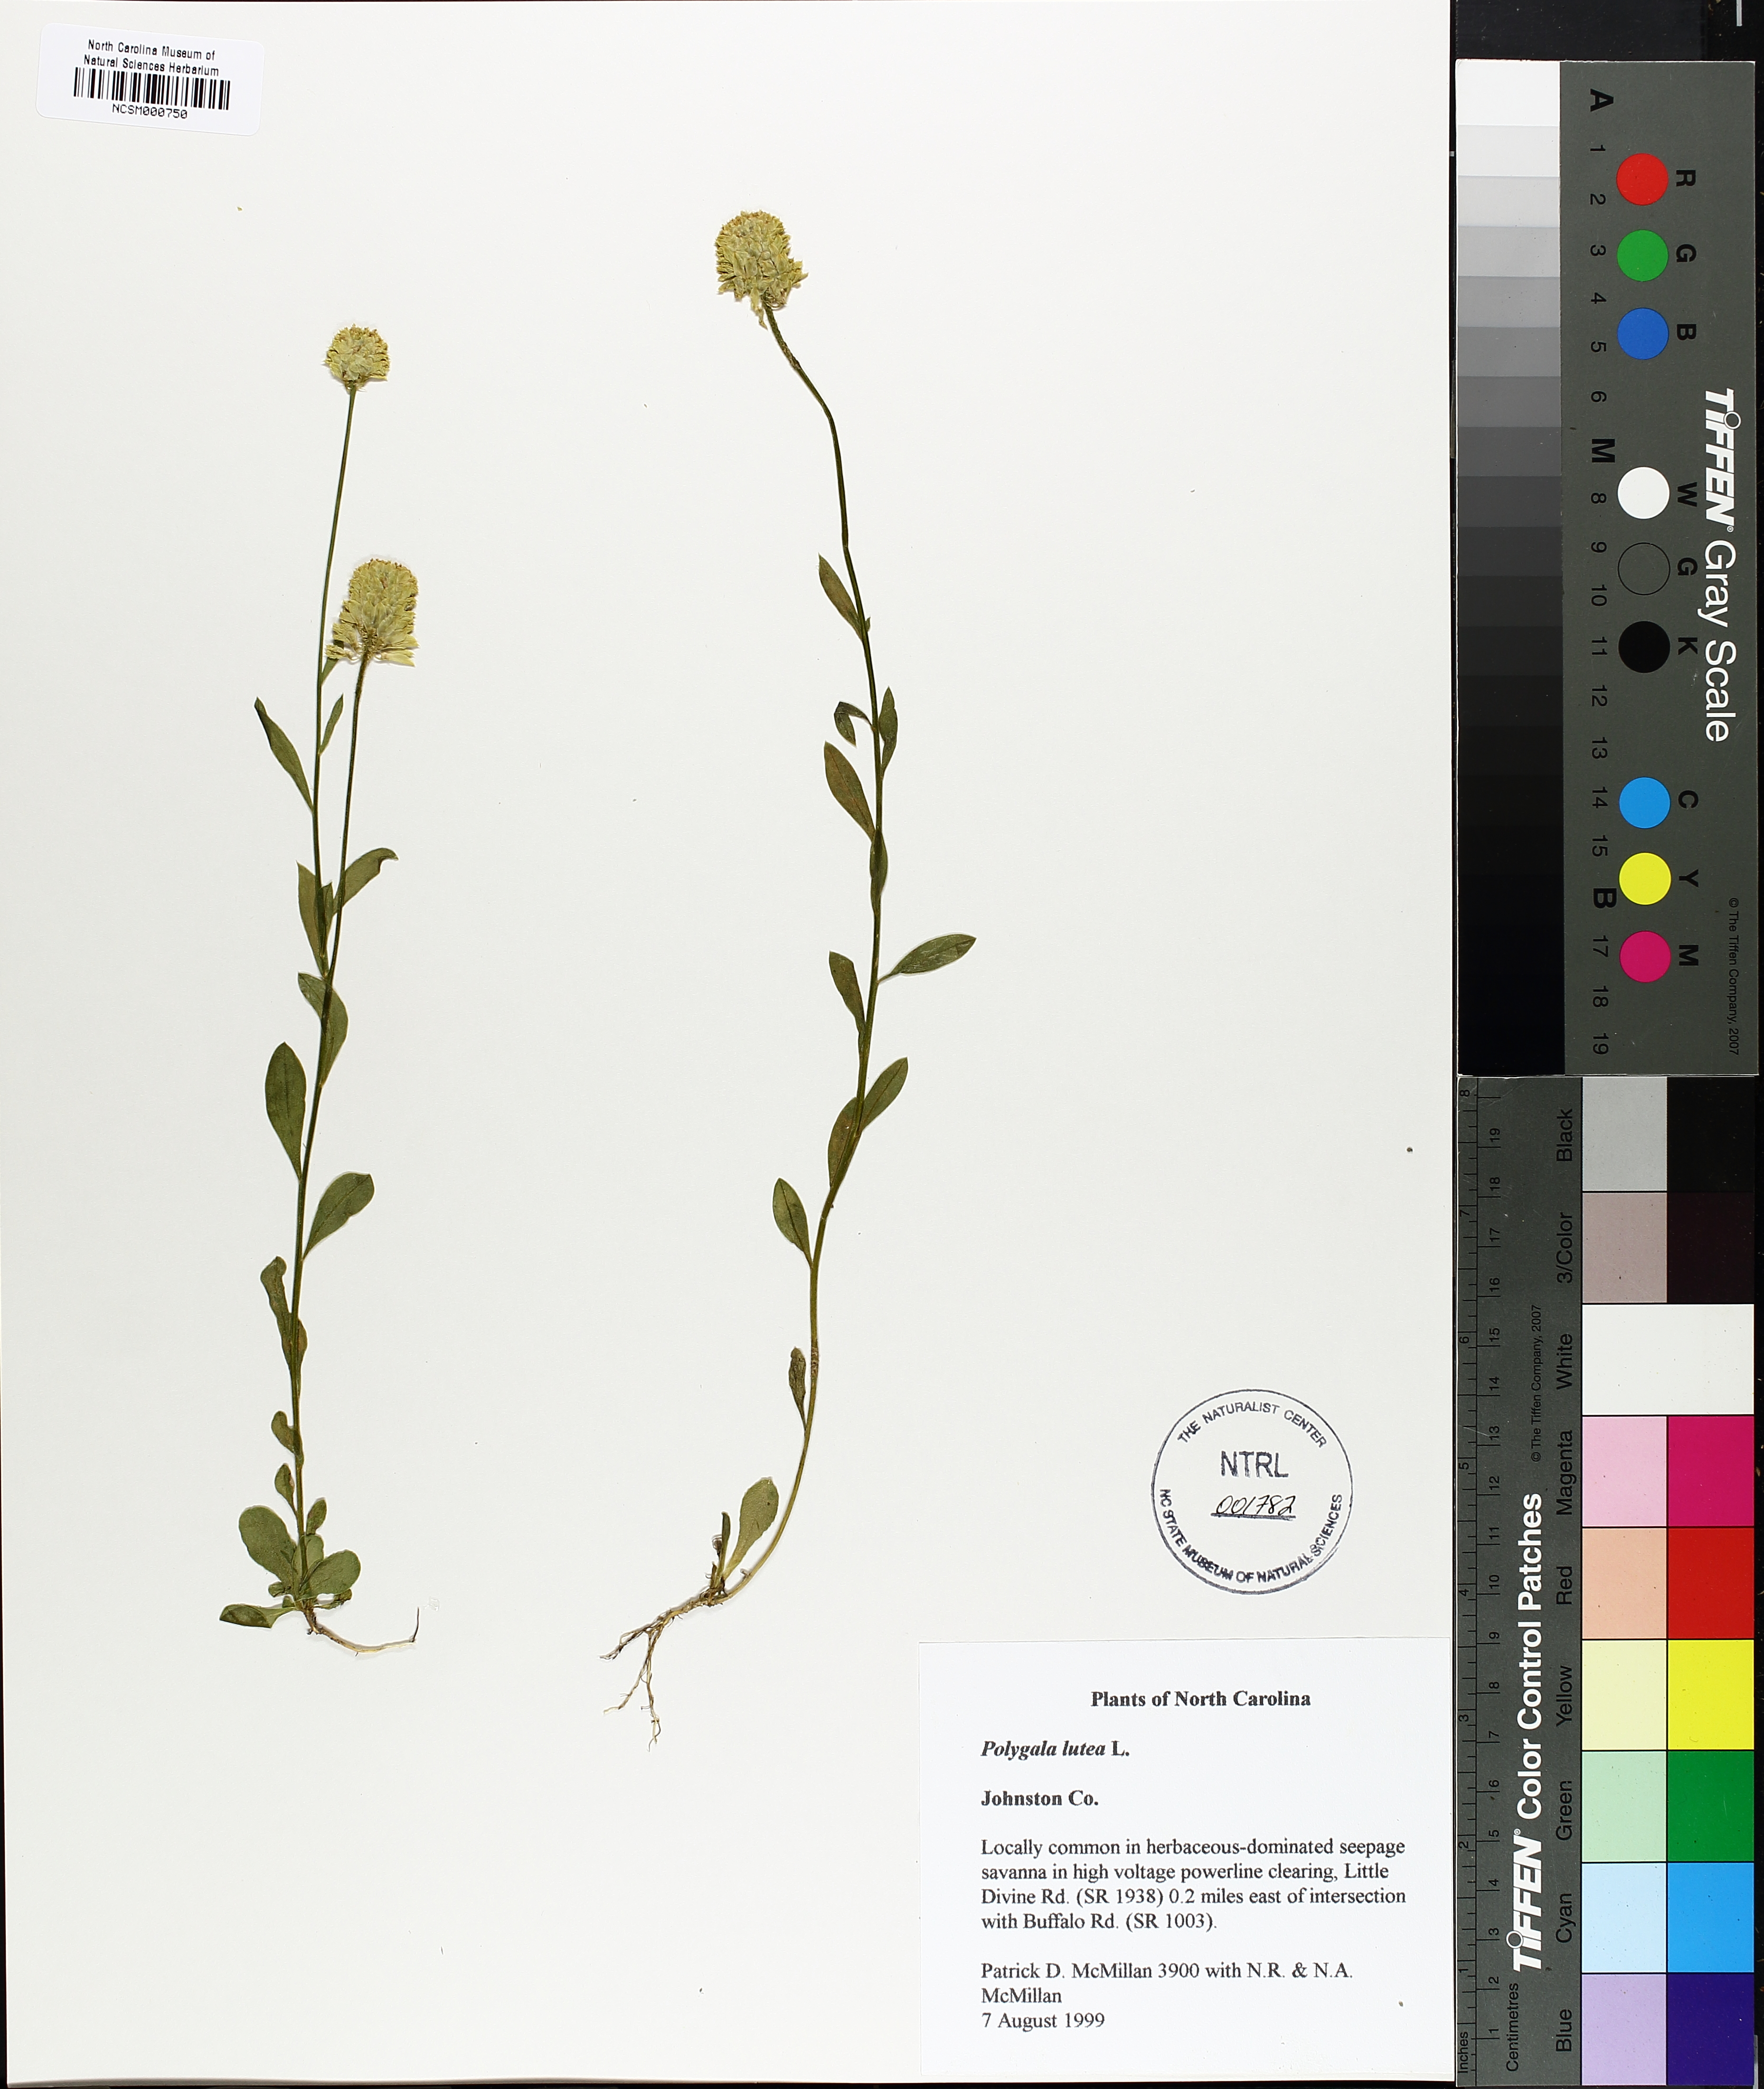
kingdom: Plantae
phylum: Tracheophyta
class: Magnoliopsida
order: Fabales
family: Polygalaceae
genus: Polygala
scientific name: Polygala lutea
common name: Orange milkwort
